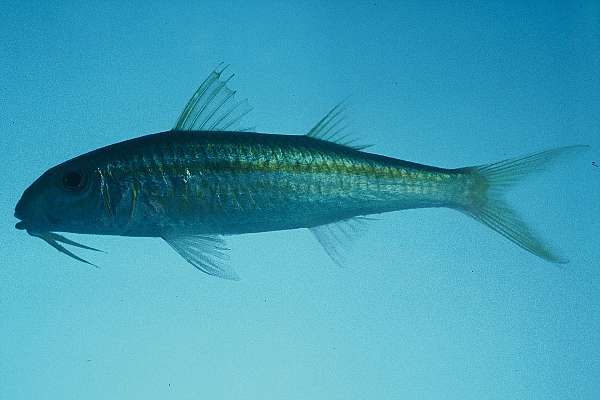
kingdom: Animalia
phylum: Chordata
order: Perciformes
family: Mullidae
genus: Mulloidichthys
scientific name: Mulloidichthys flavolineatus
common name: Yellowstripe goatfish
